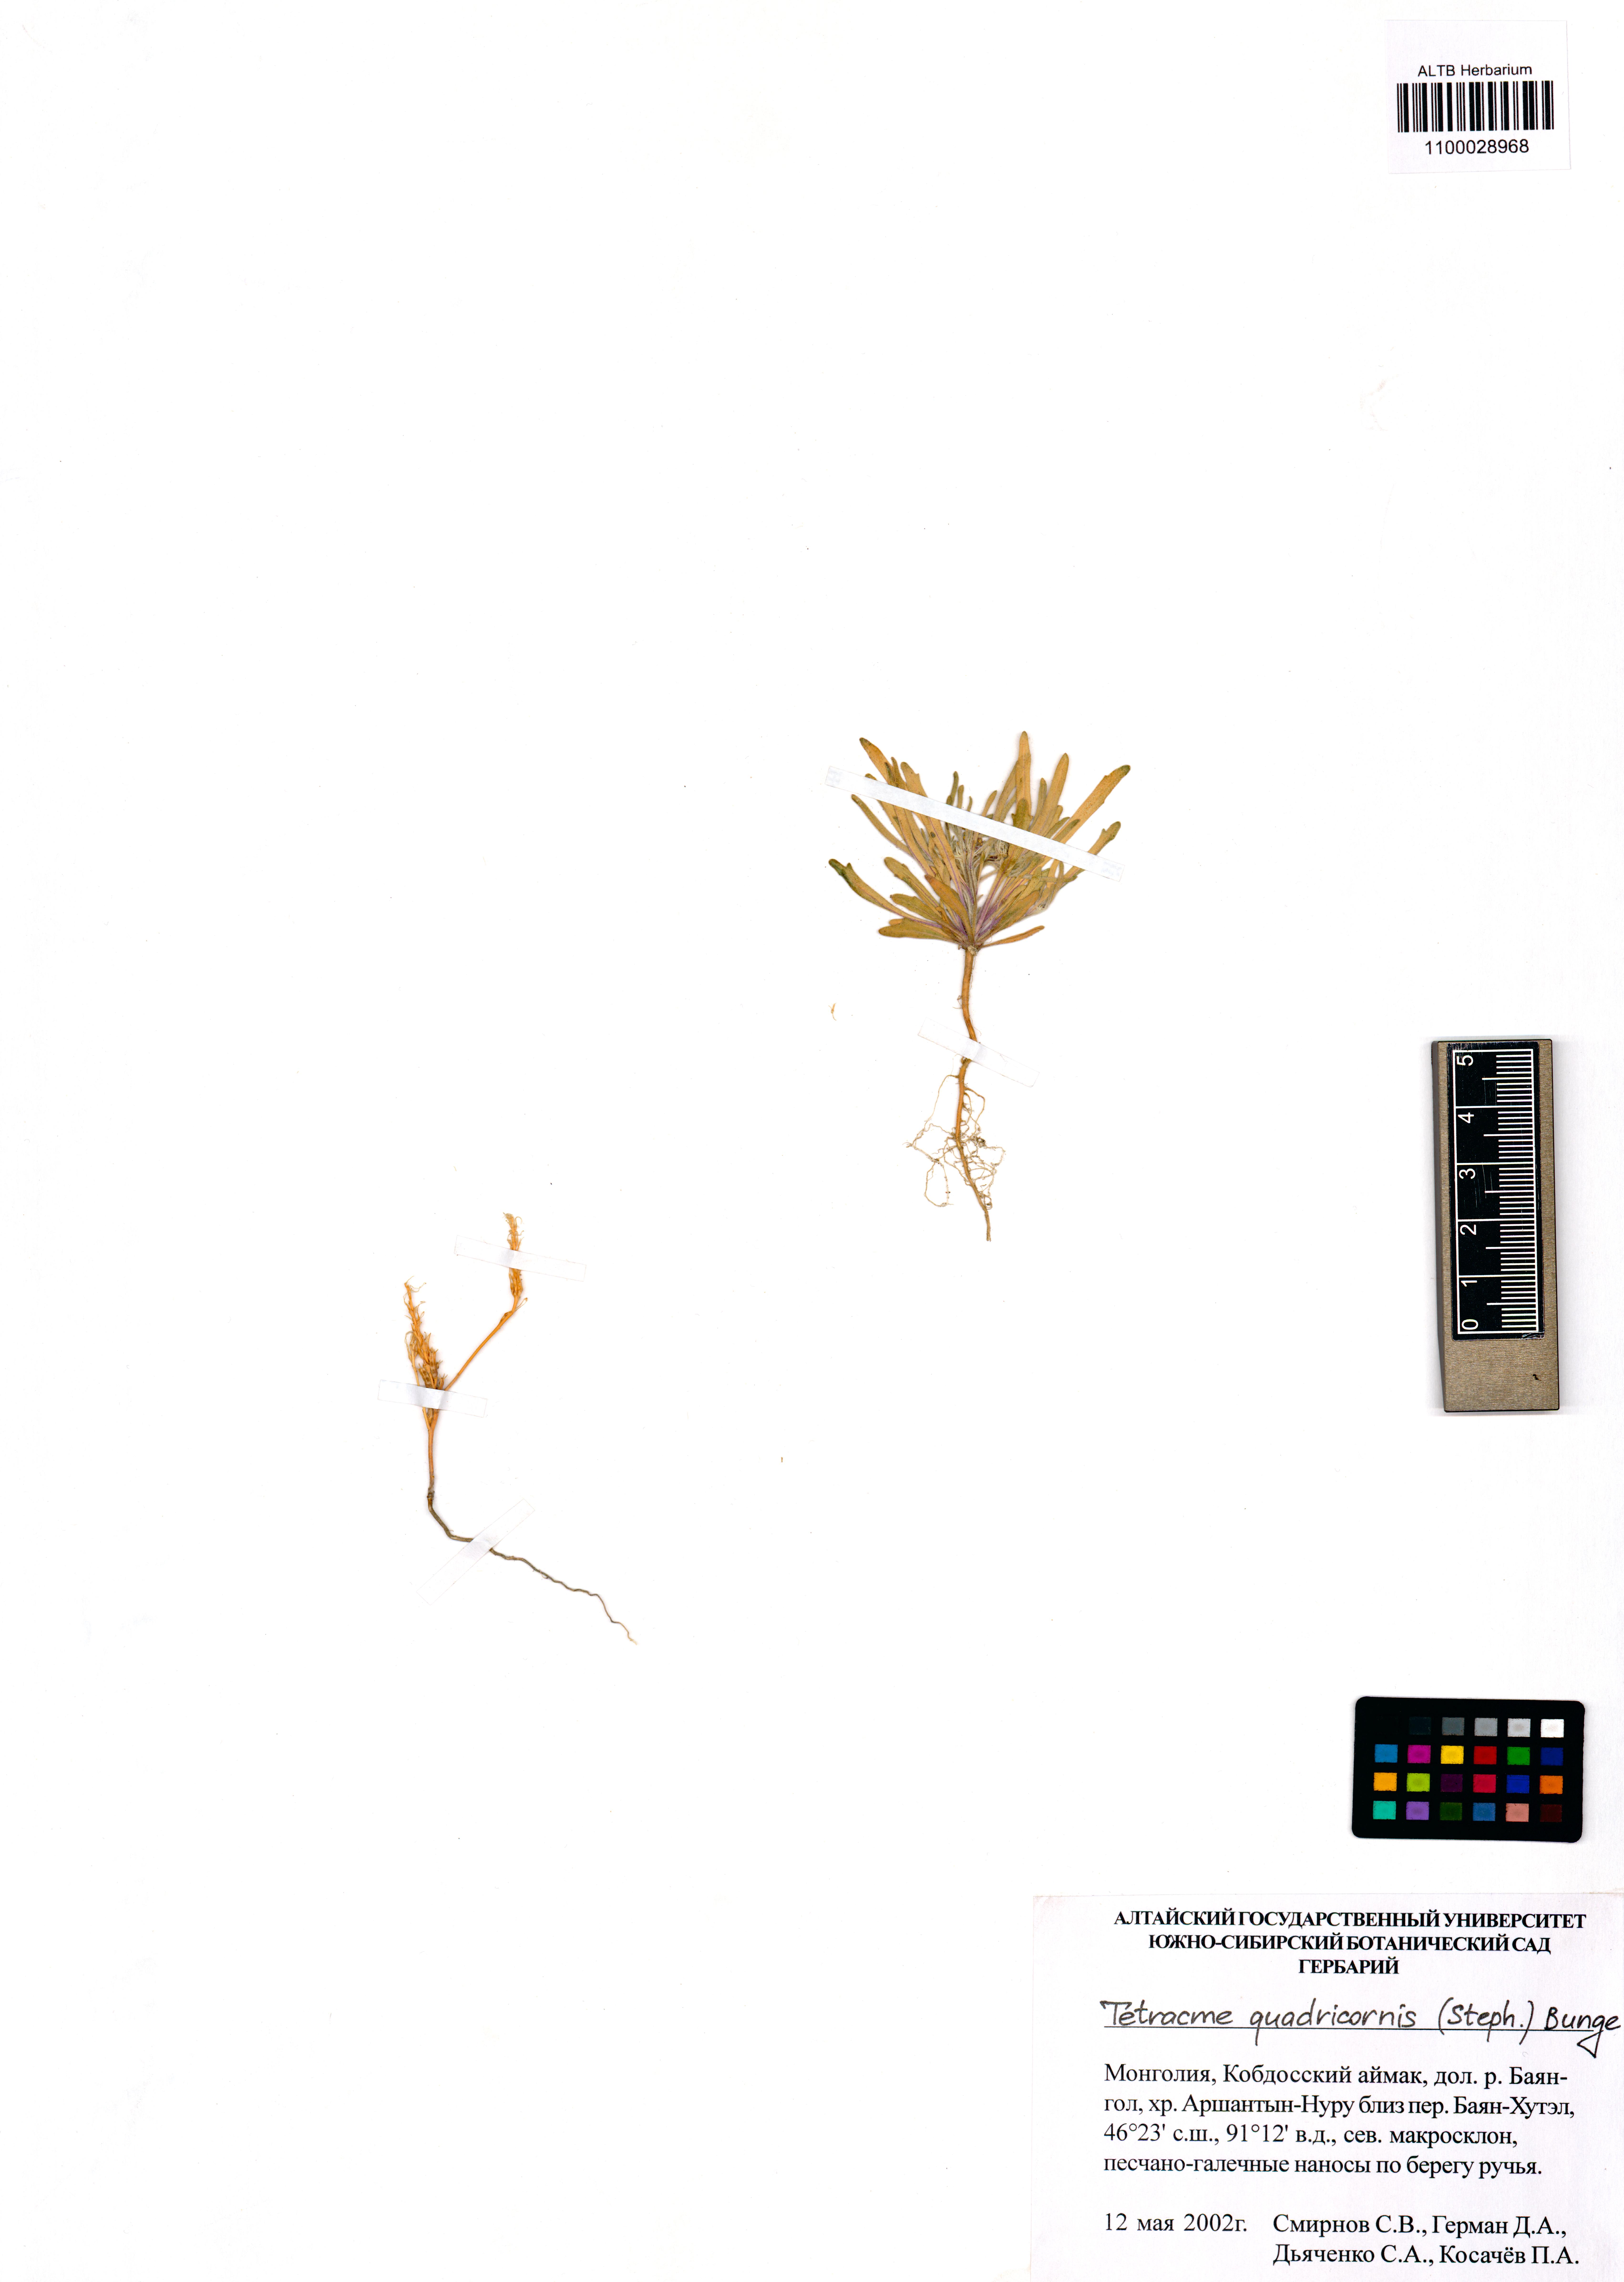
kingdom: Plantae
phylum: Tracheophyta
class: Magnoliopsida
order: Brassicales
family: Brassicaceae
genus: Tetracme
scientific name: Tetracme quadricornis
